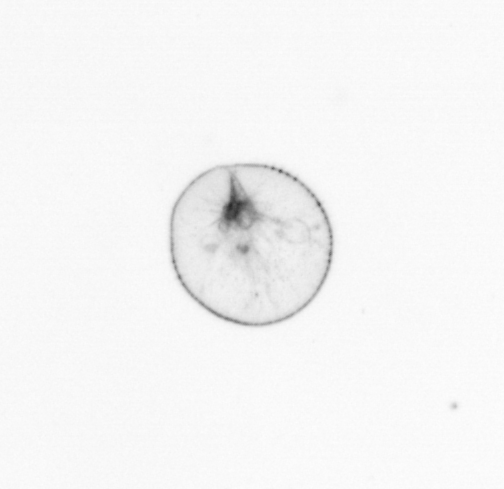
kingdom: Chromista
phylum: Myzozoa
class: Dinophyceae
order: Noctilucales
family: Noctilucaceae
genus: Noctiluca
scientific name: Noctiluca scintillans
